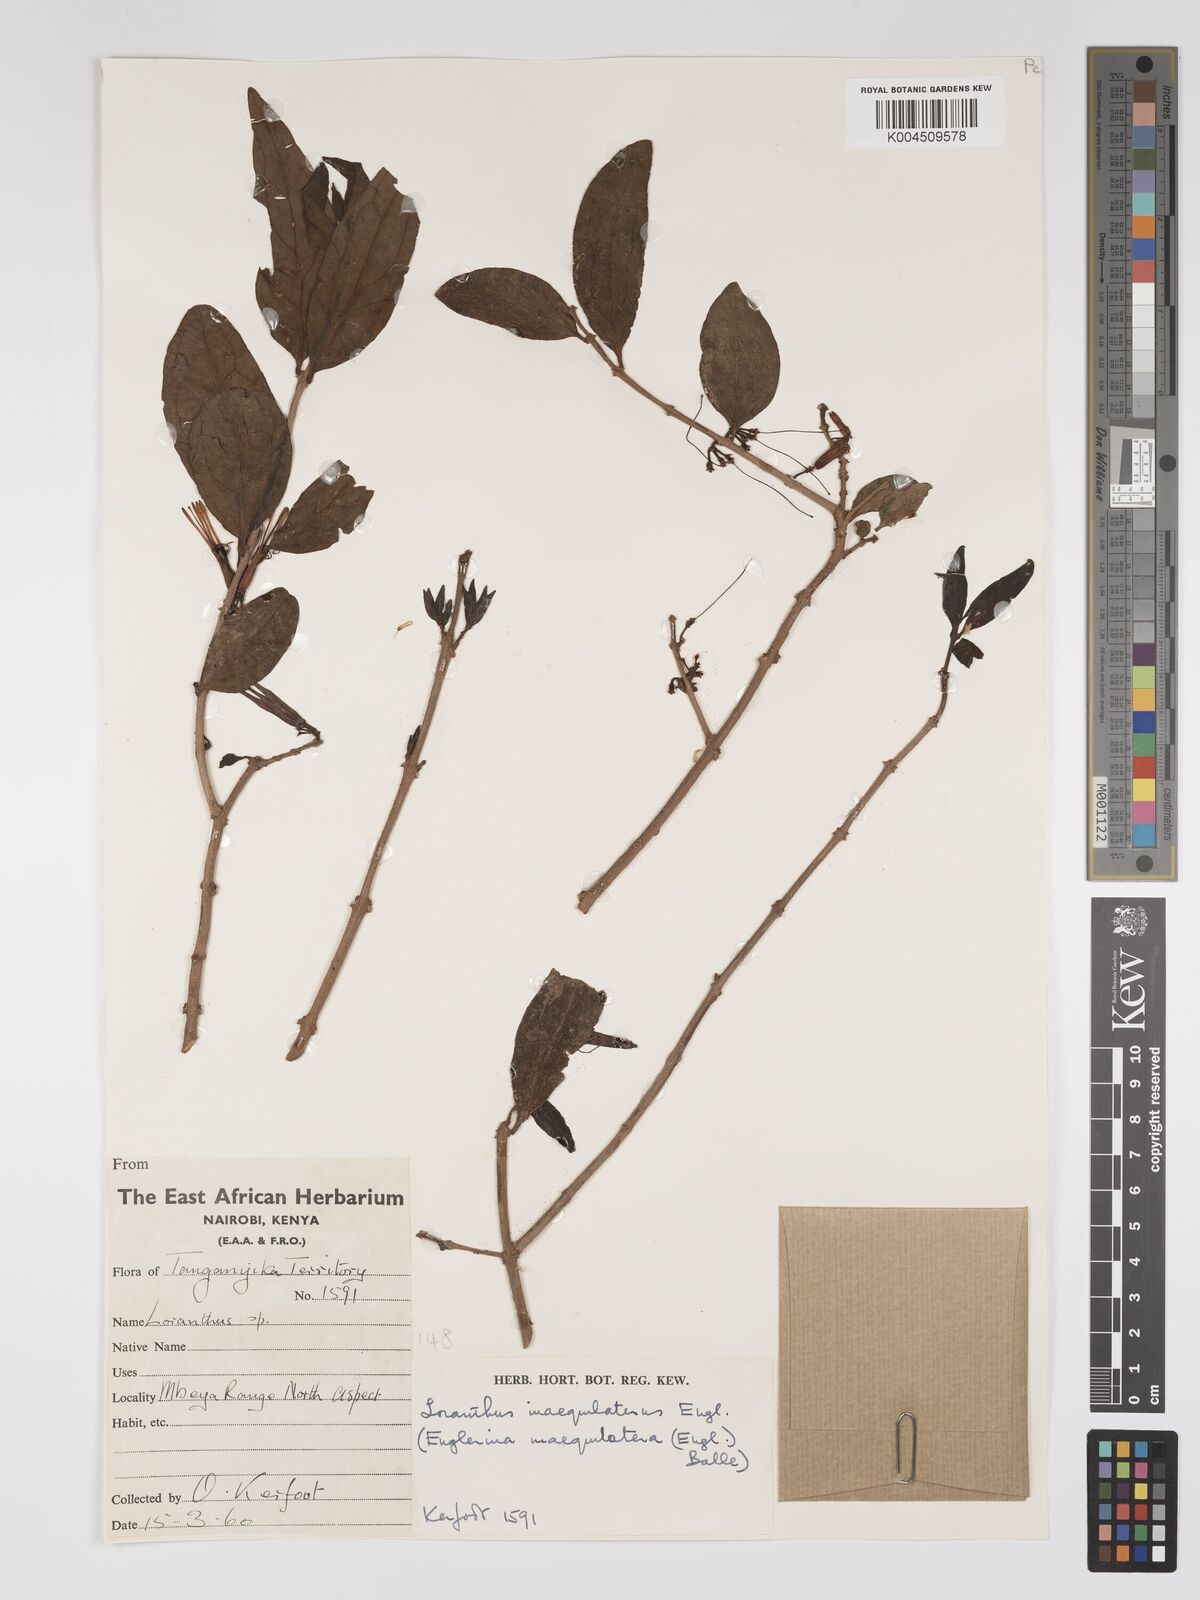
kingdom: Plantae
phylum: Tracheophyta
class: Magnoliopsida
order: Santalales
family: Loranthaceae
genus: Englerina
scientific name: Englerina inaequilatera
